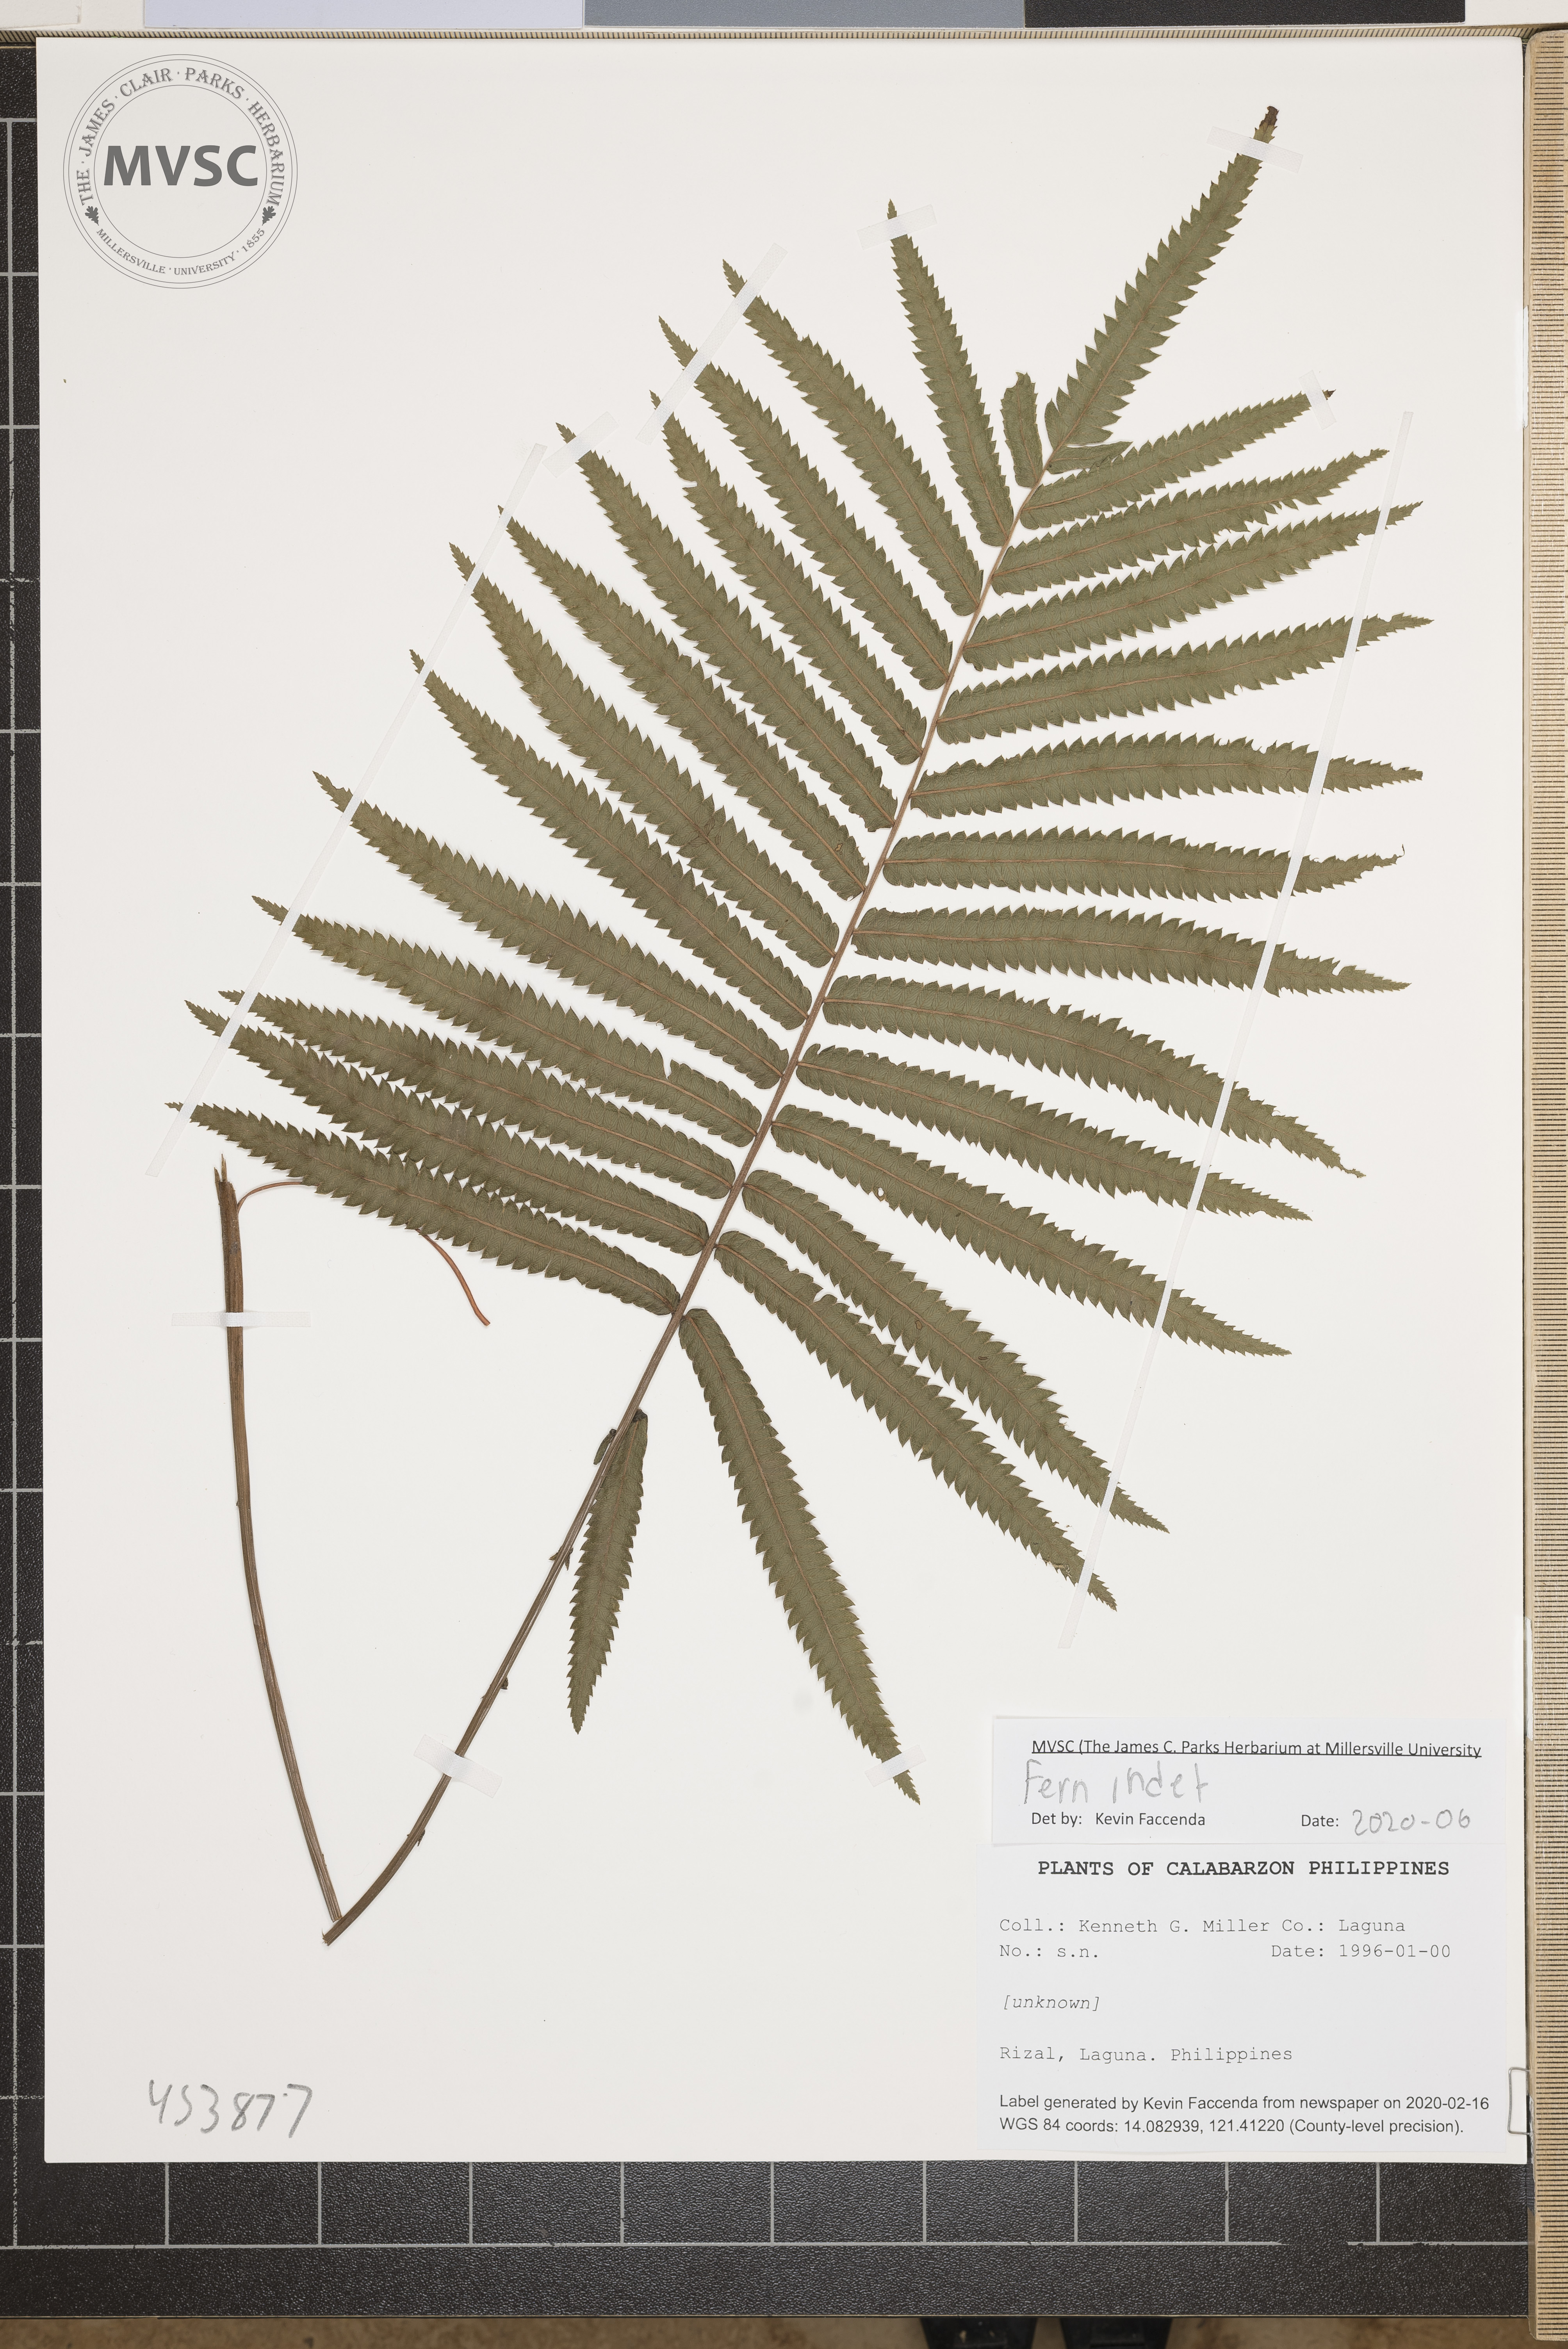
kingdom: Plantae
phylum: Tracheophyta
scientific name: Tracheophyta
